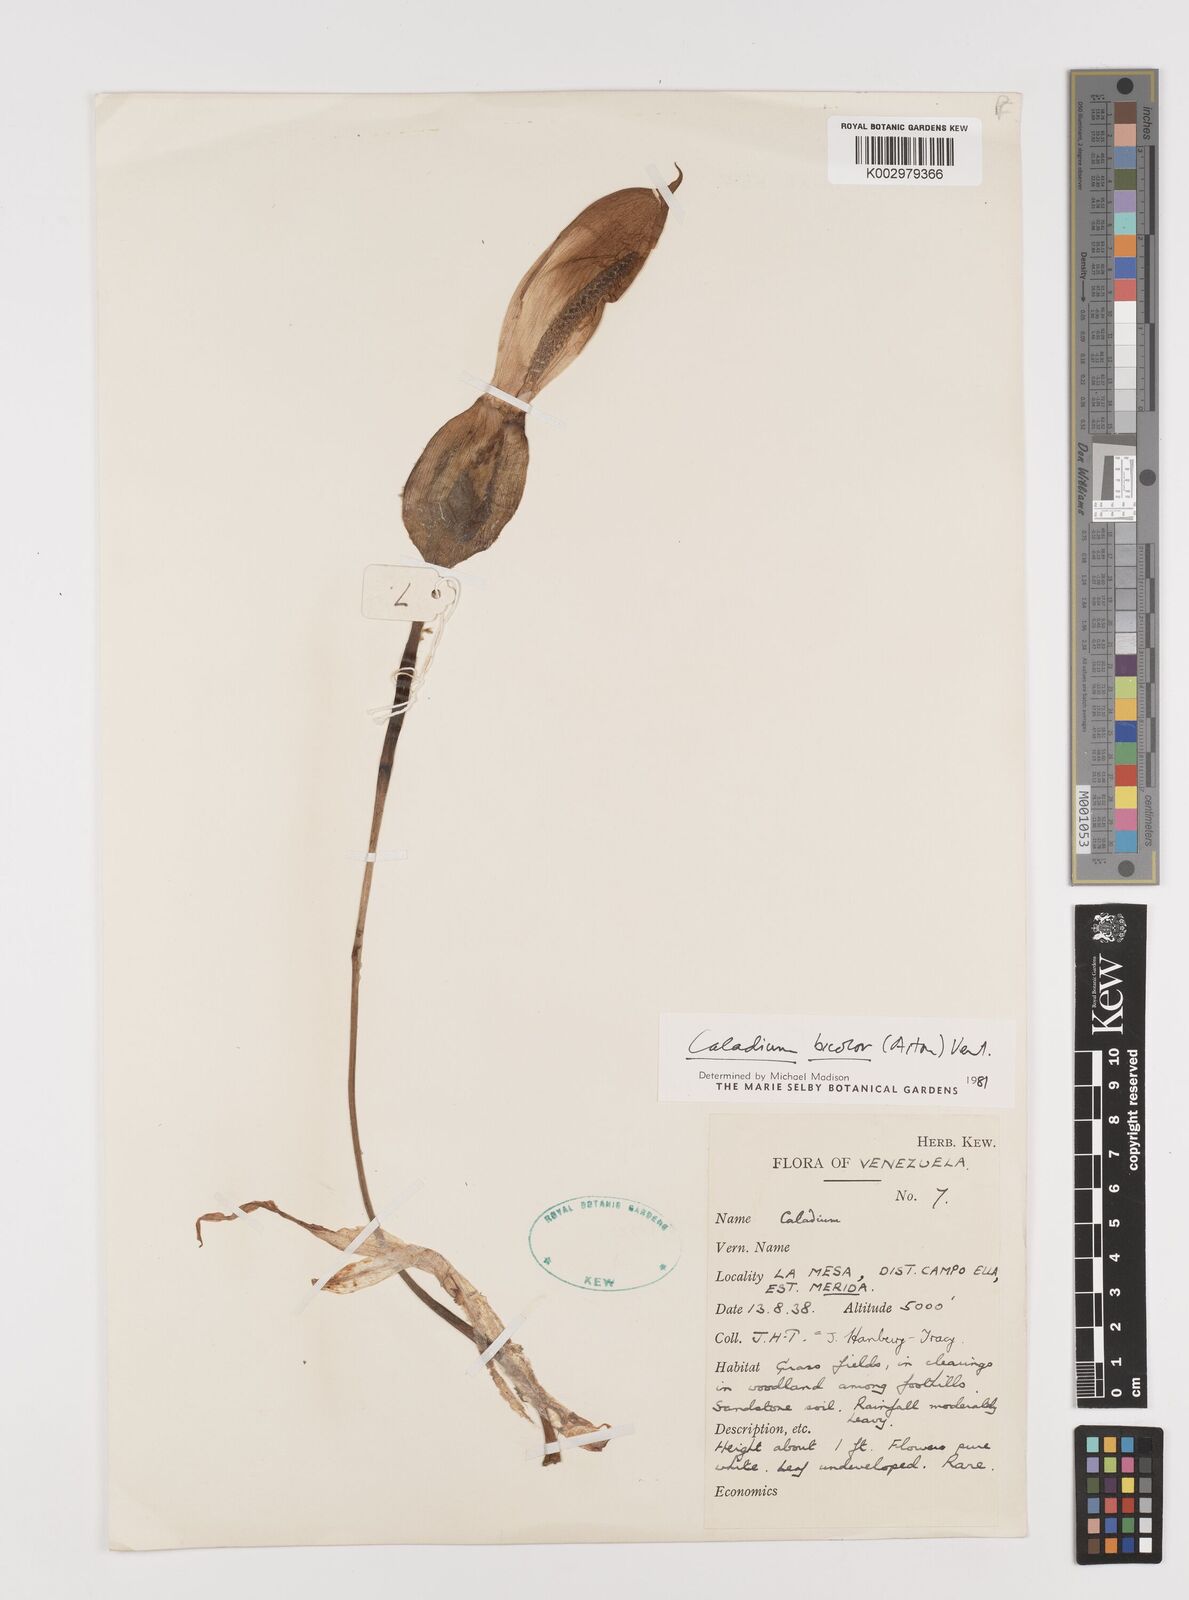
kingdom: Plantae
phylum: Tracheophyta
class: Liliopsida
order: Alismatales
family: Araceae
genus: Caladium
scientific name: Caladium bicolor
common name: Artist's pallet
